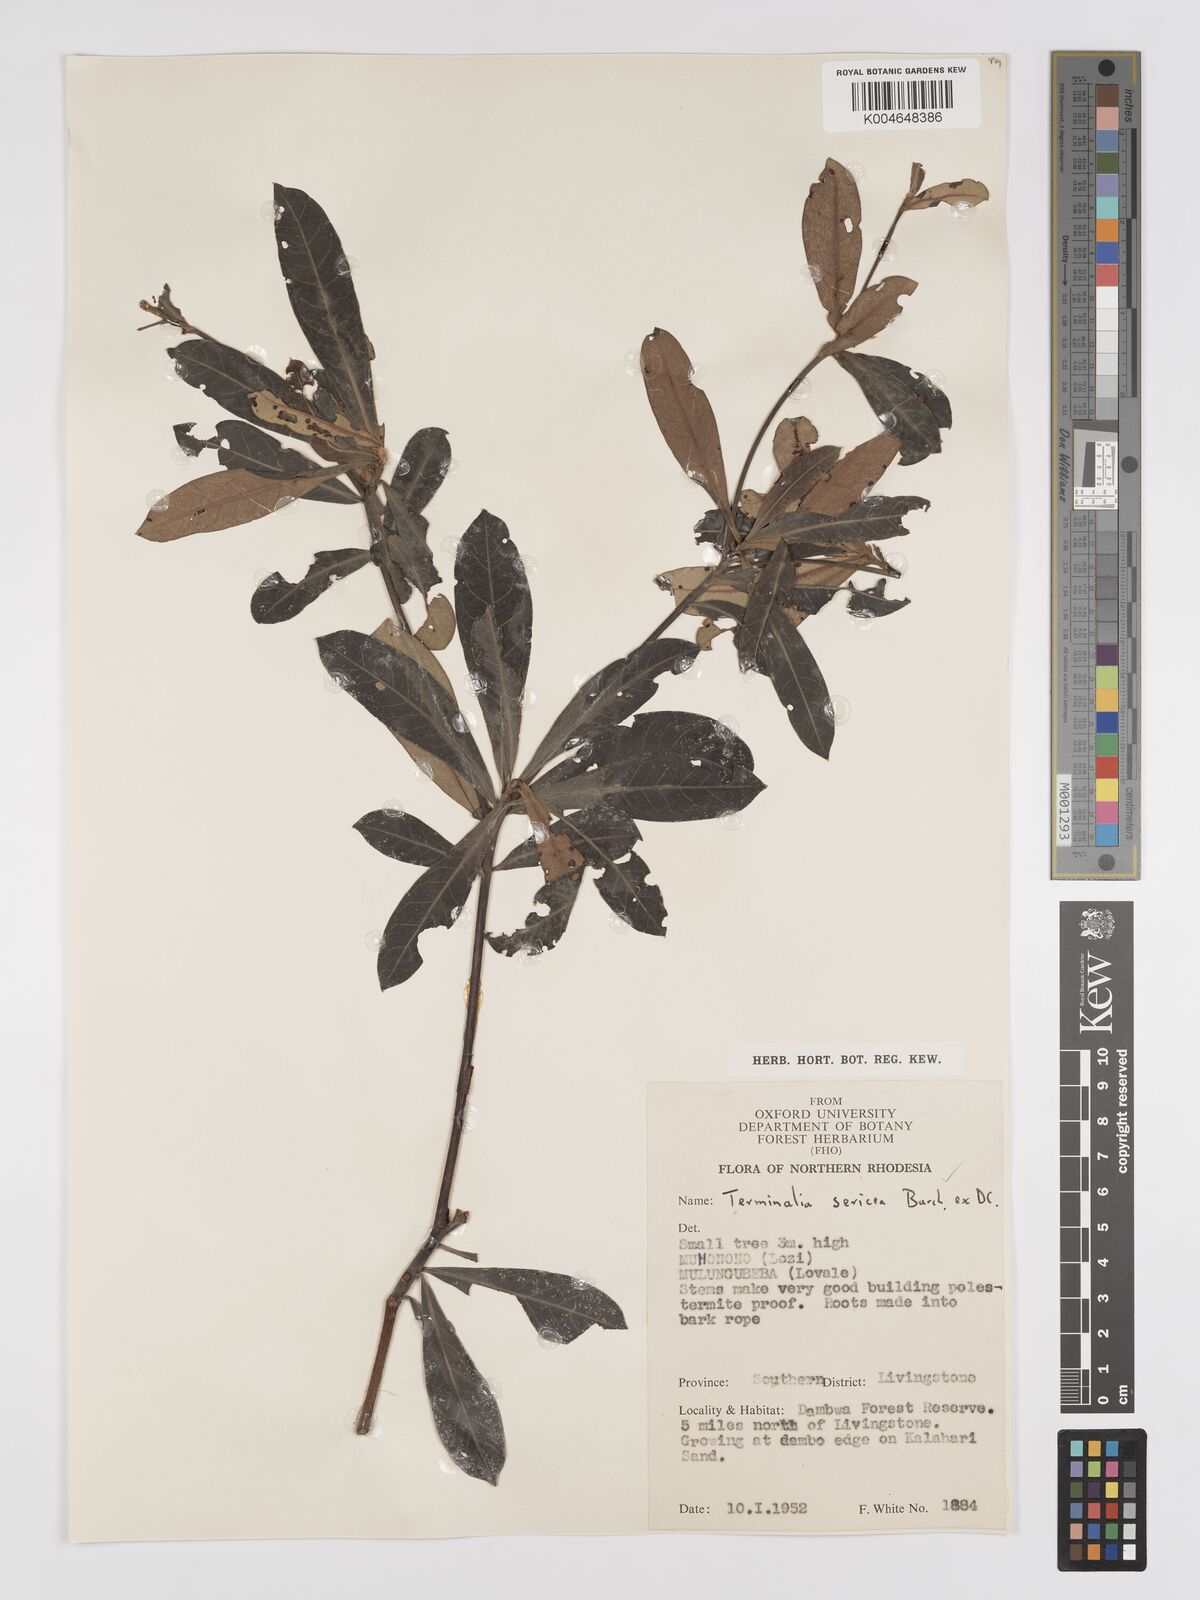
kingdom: Plantae
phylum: Tracheophyta
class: Magnoliopsida
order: Myrtales
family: Combretaceae
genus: Terminalia
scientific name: Terminalia
